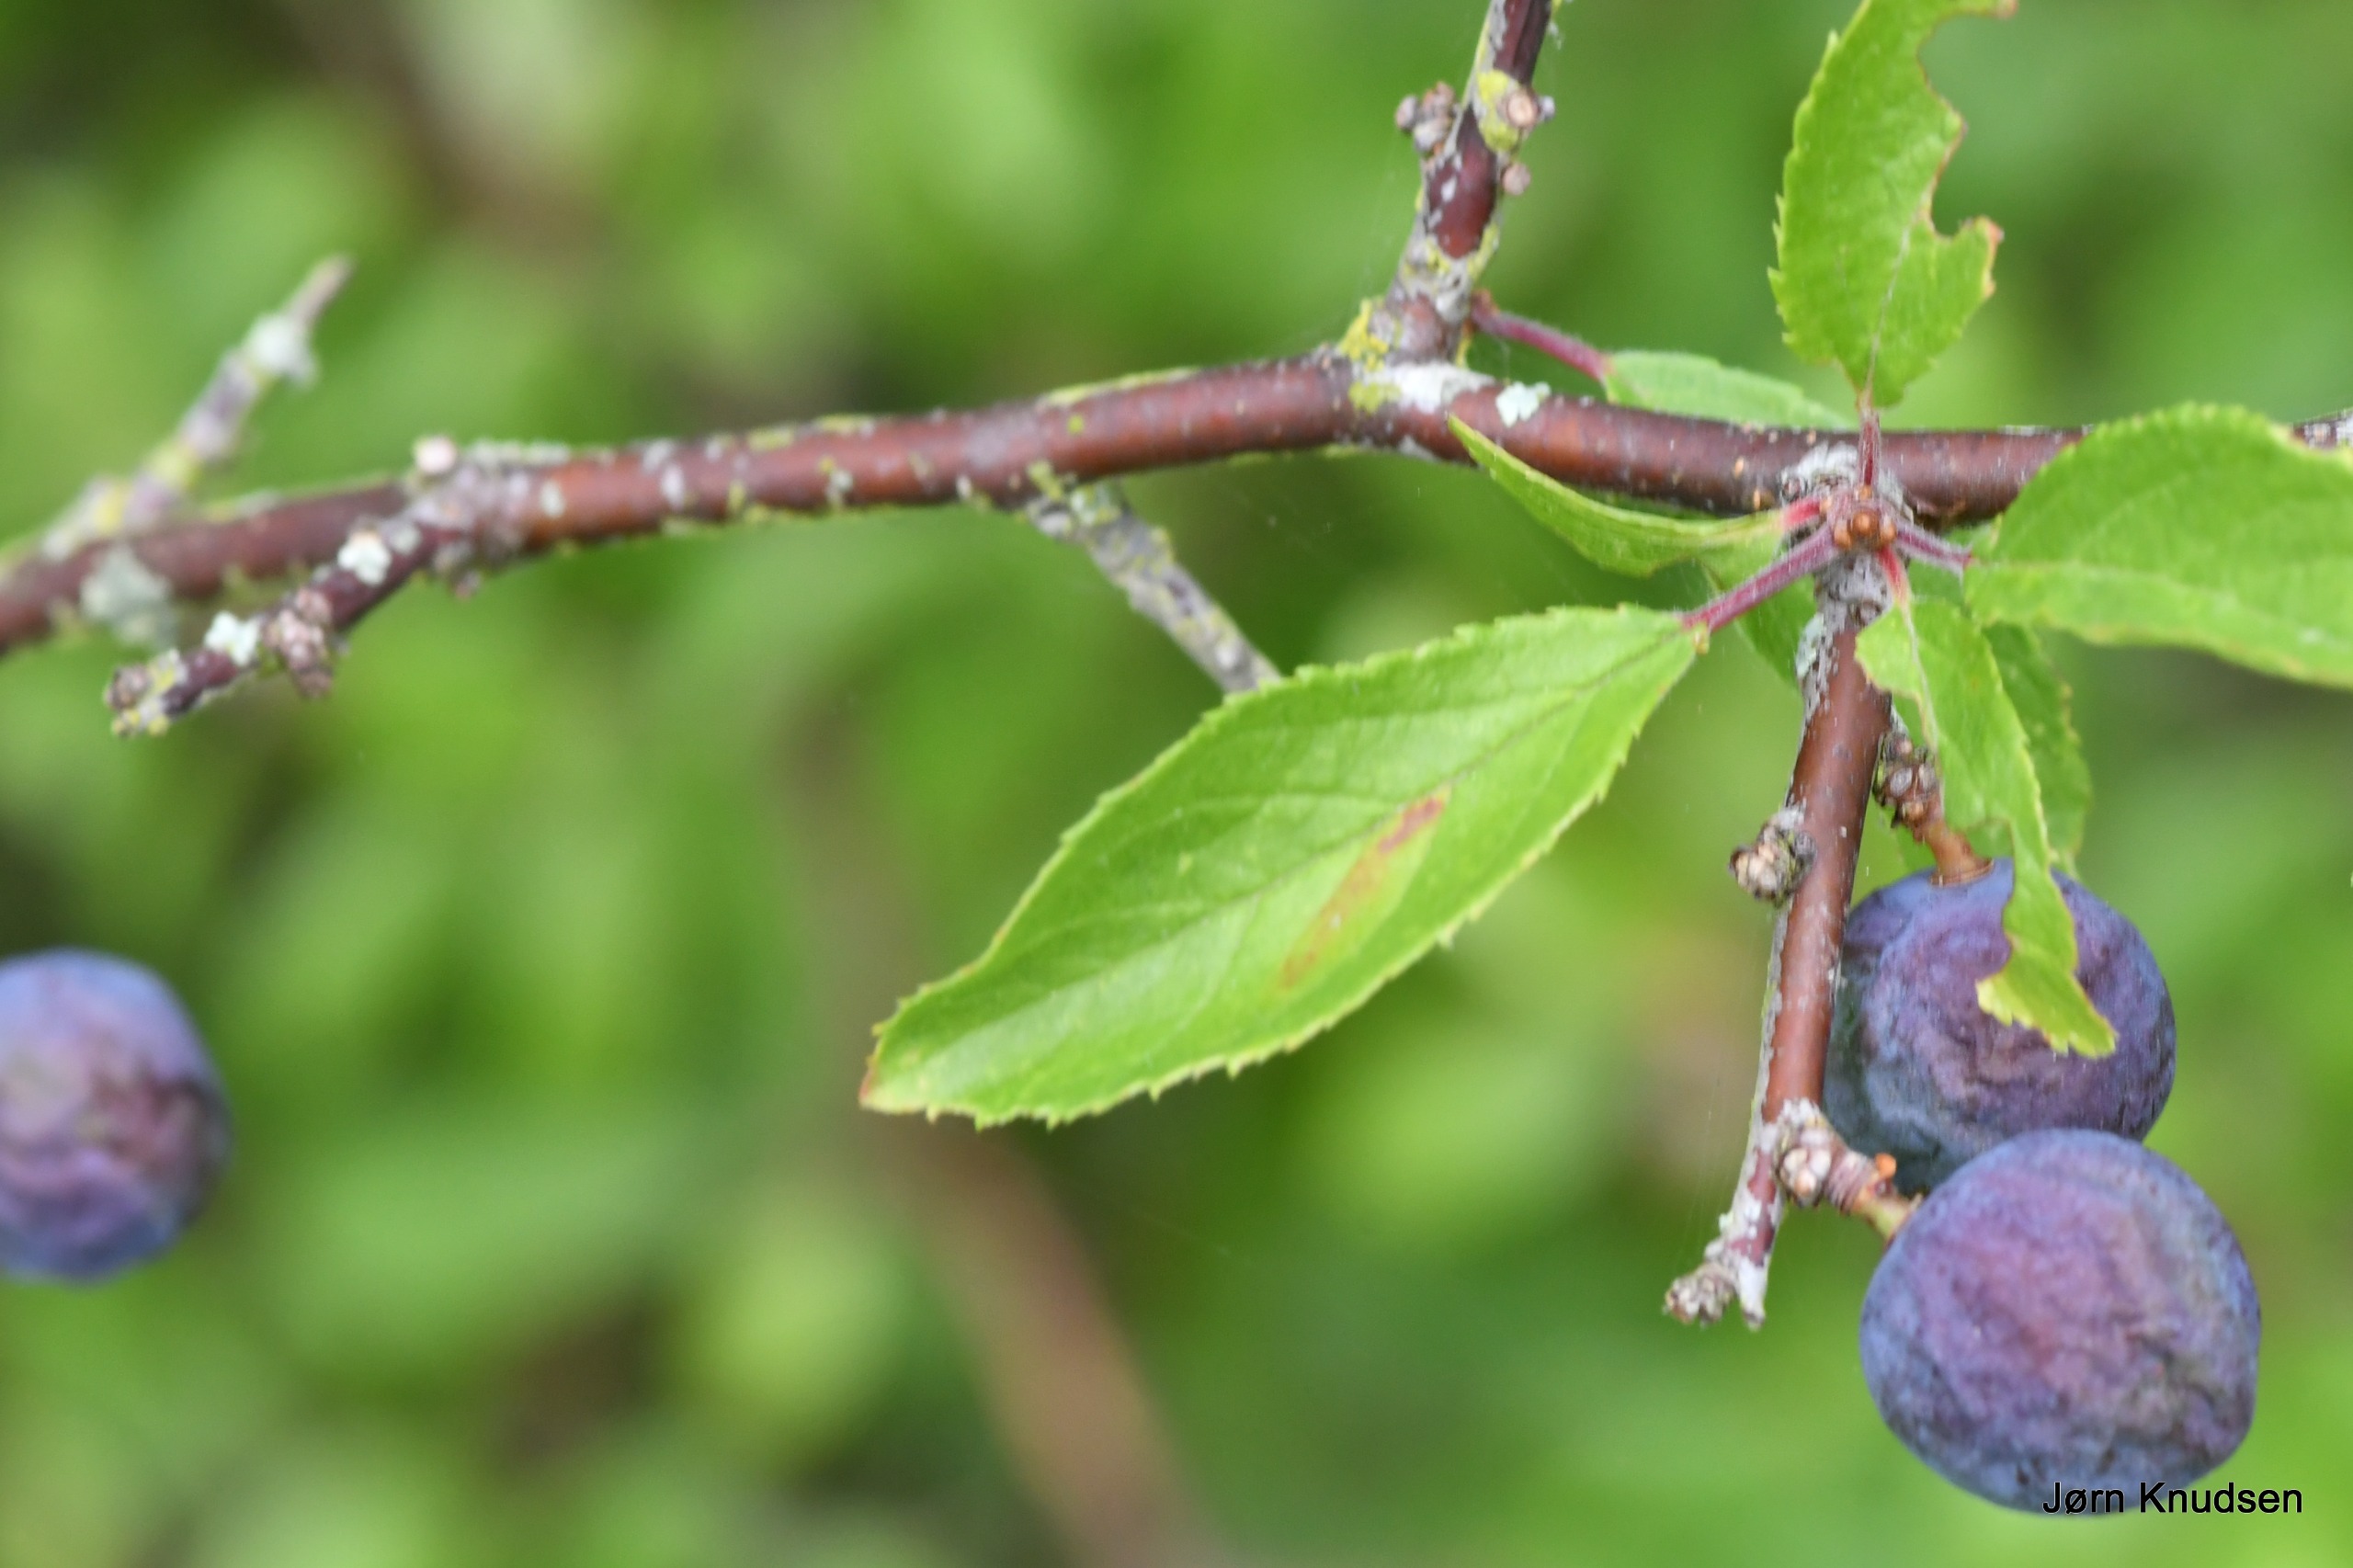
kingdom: Plantae
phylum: Tracheophyta
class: Magnoliopsida
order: Rosales
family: Rosaceae
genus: Prunus
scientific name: Prunus spinosa
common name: Slåen
